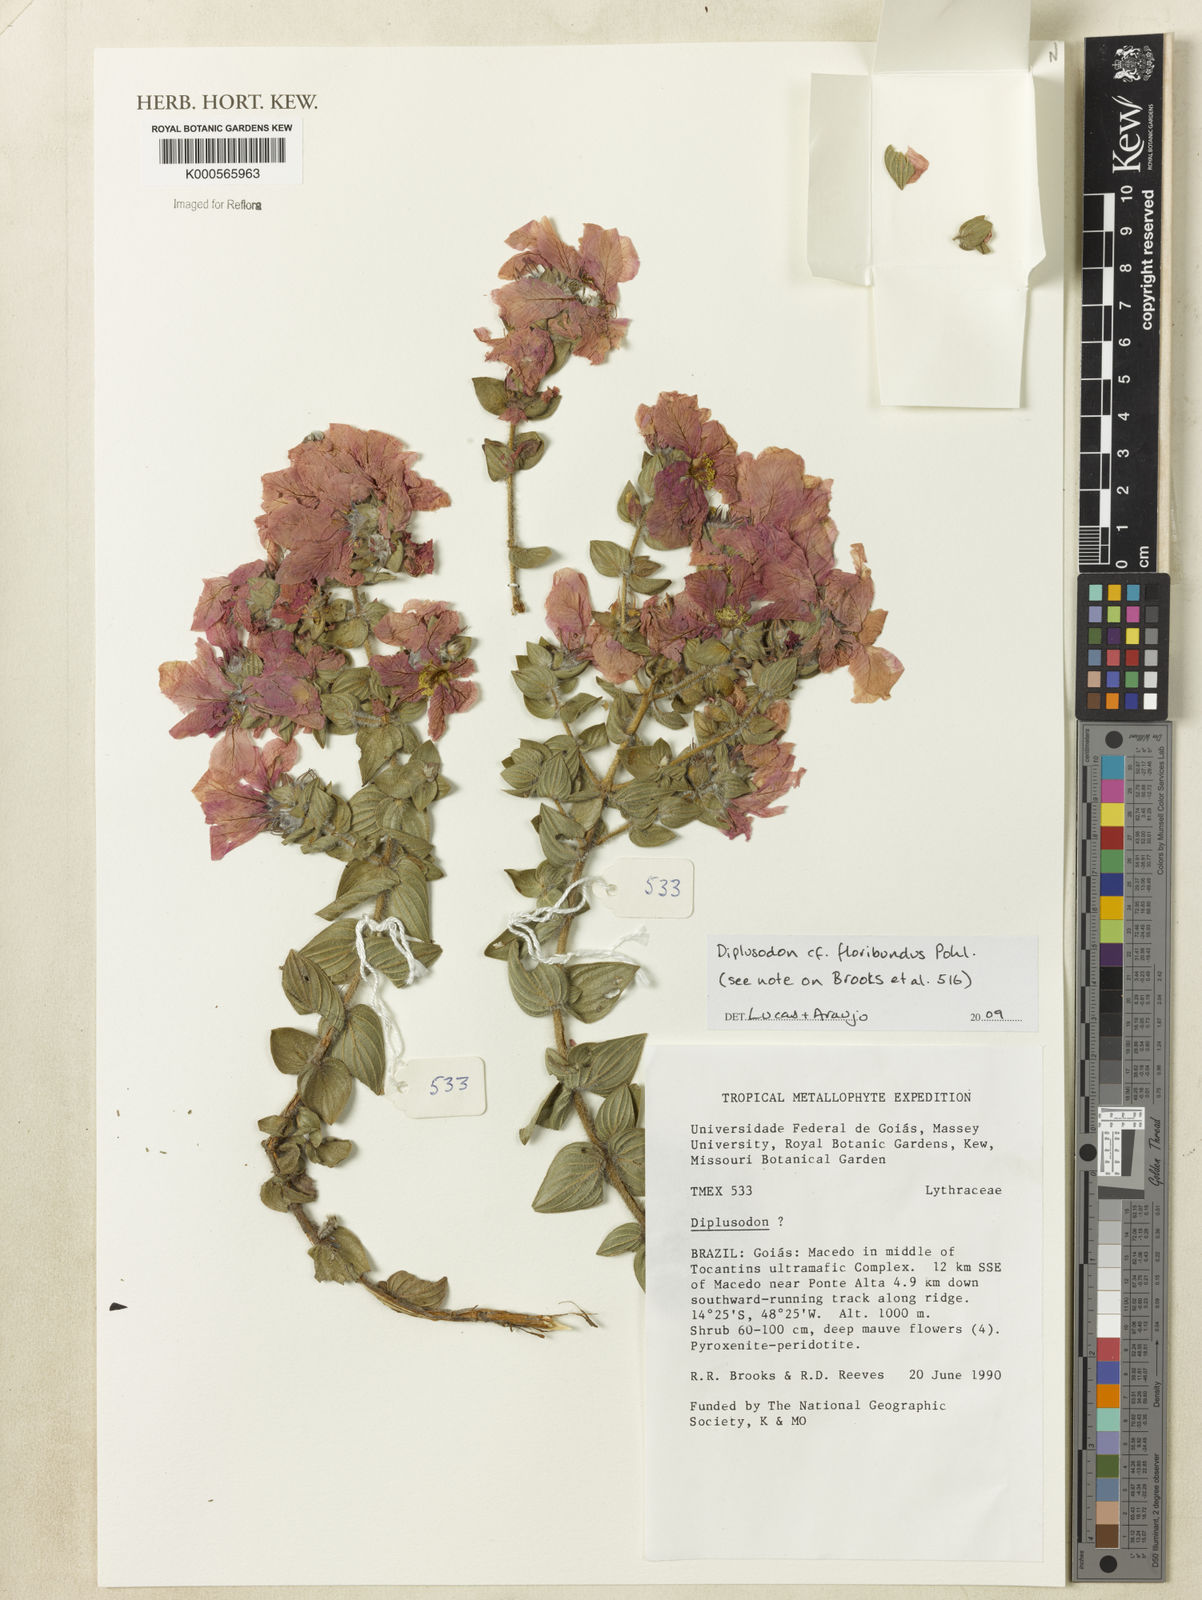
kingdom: Plantae
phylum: Tracheophyta
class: Magnoliopsida
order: Myrtales
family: Lythraceae
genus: Diplusodon
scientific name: Diplusodon floribundus
